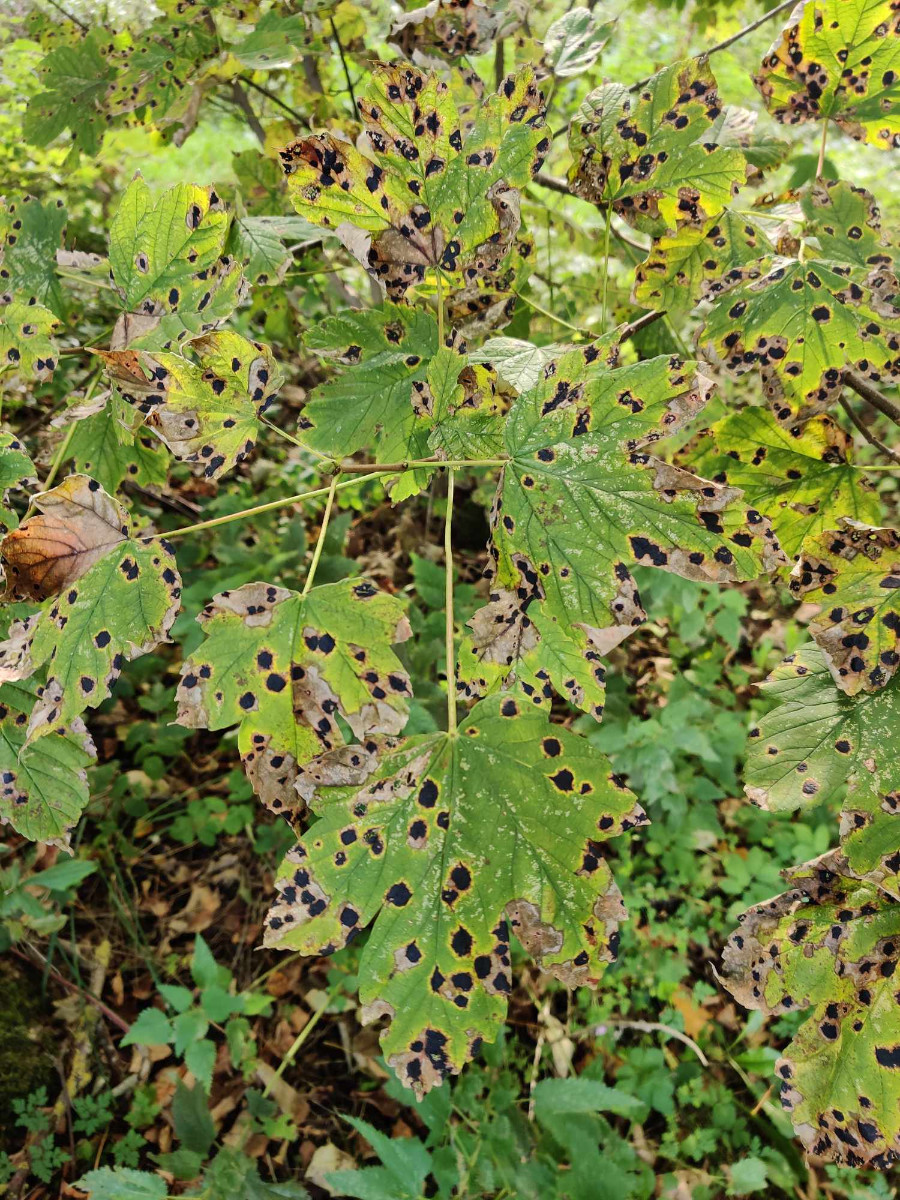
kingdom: Fungi
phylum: Ascomycota
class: Leotiomycetes
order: Rhytismatales
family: Rhytismataceae
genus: Rhytisma
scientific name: Rhytisma acerinum
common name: ahorn-rynkeplet
